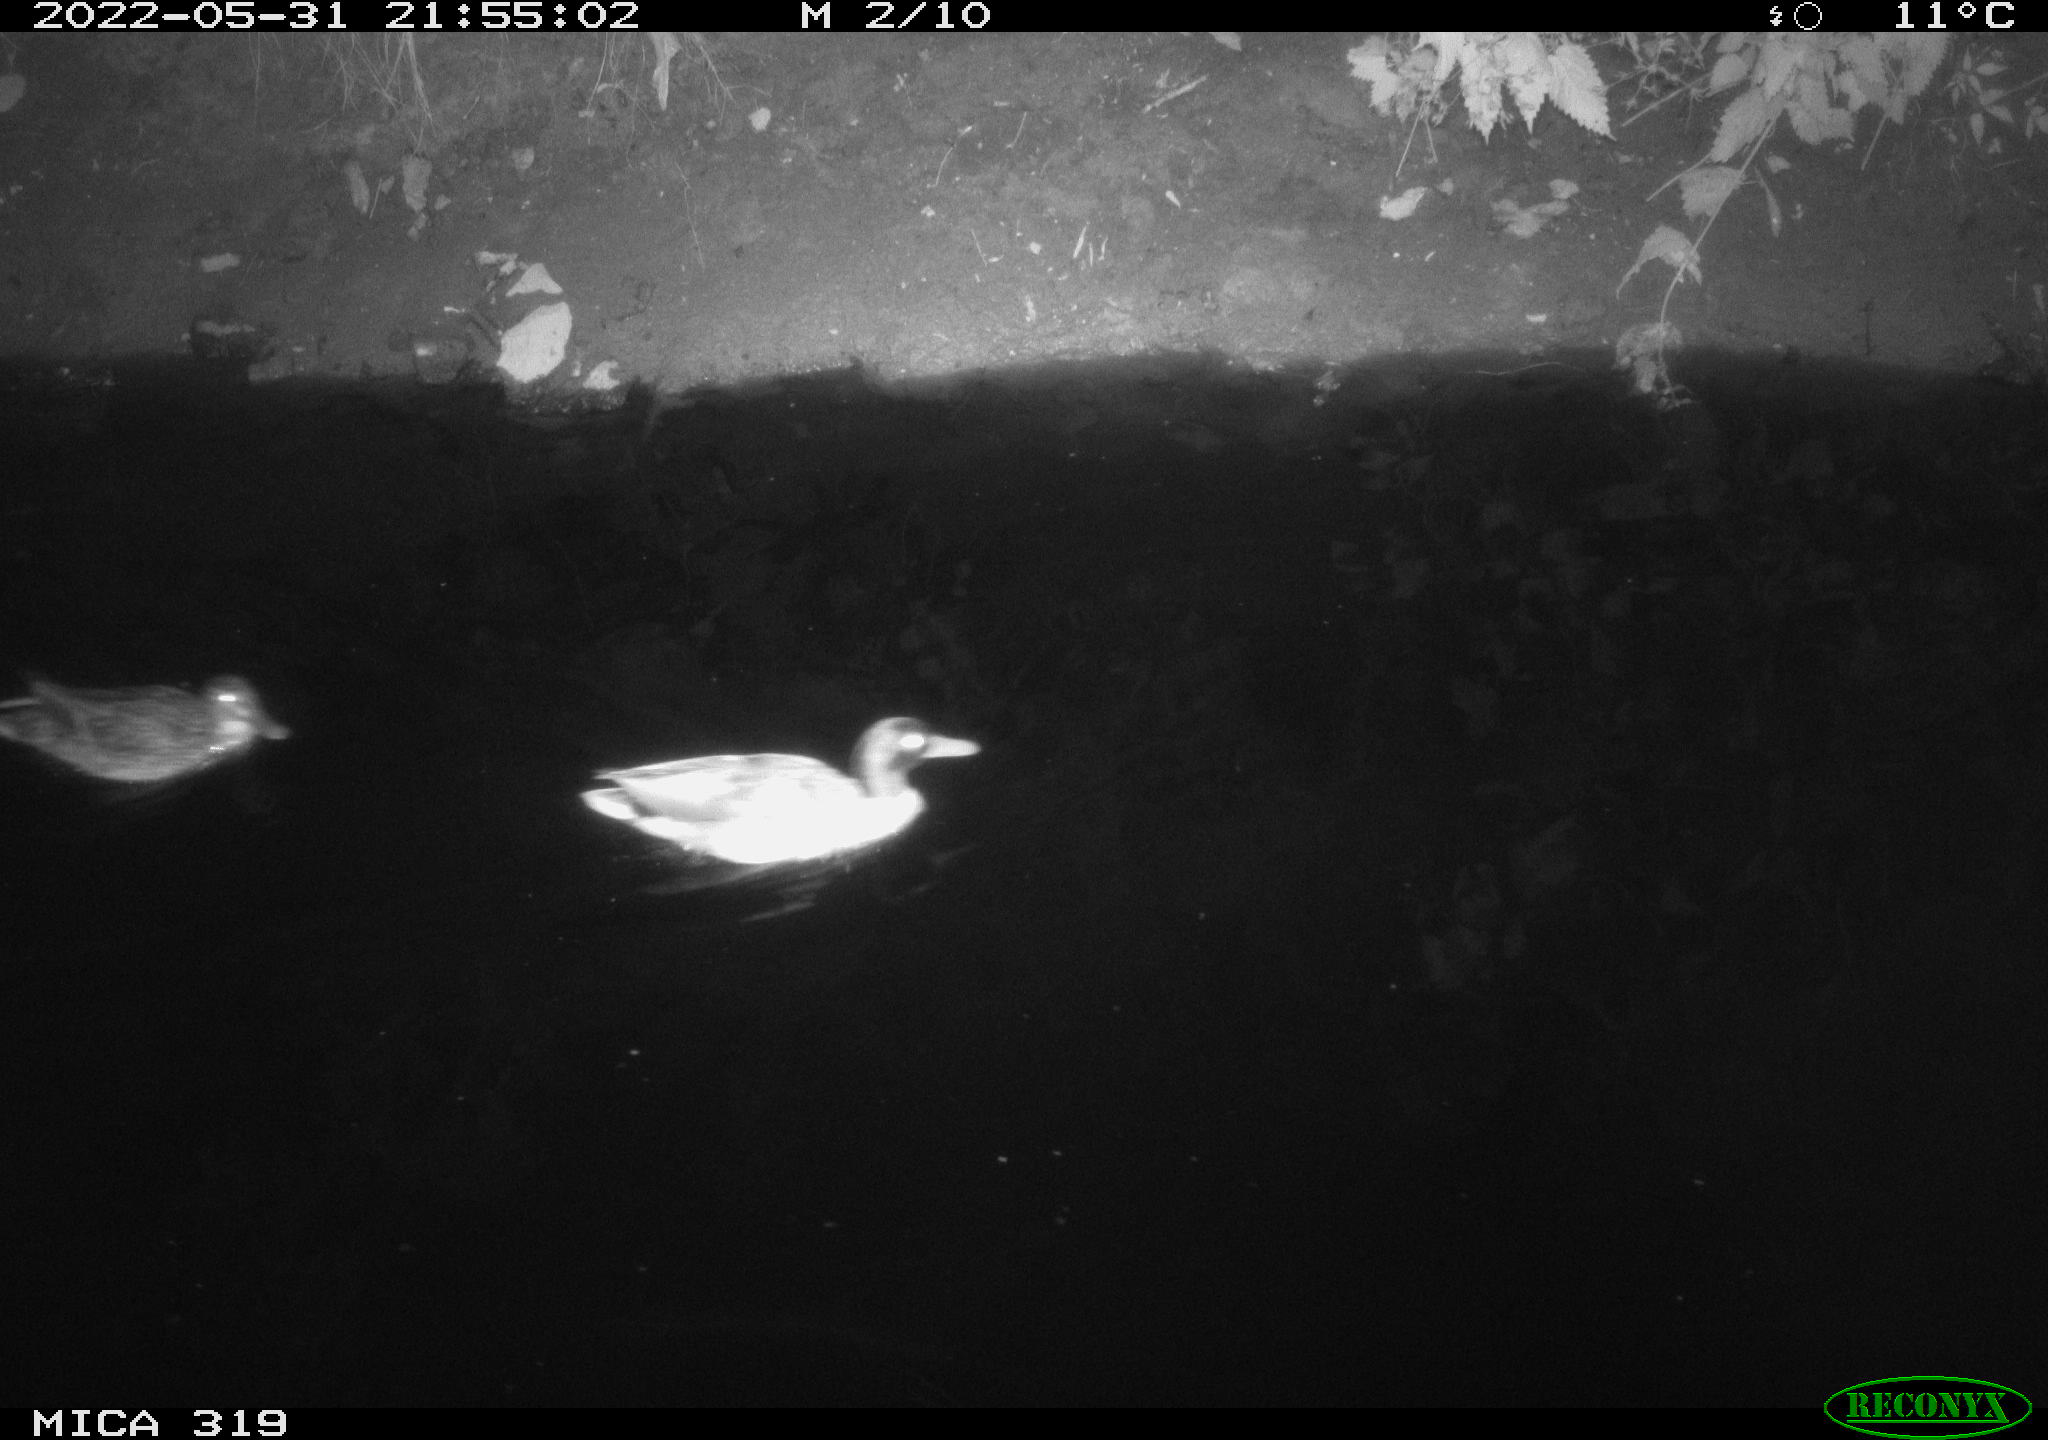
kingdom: Animalia
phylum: Chordata
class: Aves
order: Anseriformes
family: Anatidae
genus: Anas
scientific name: Anas
